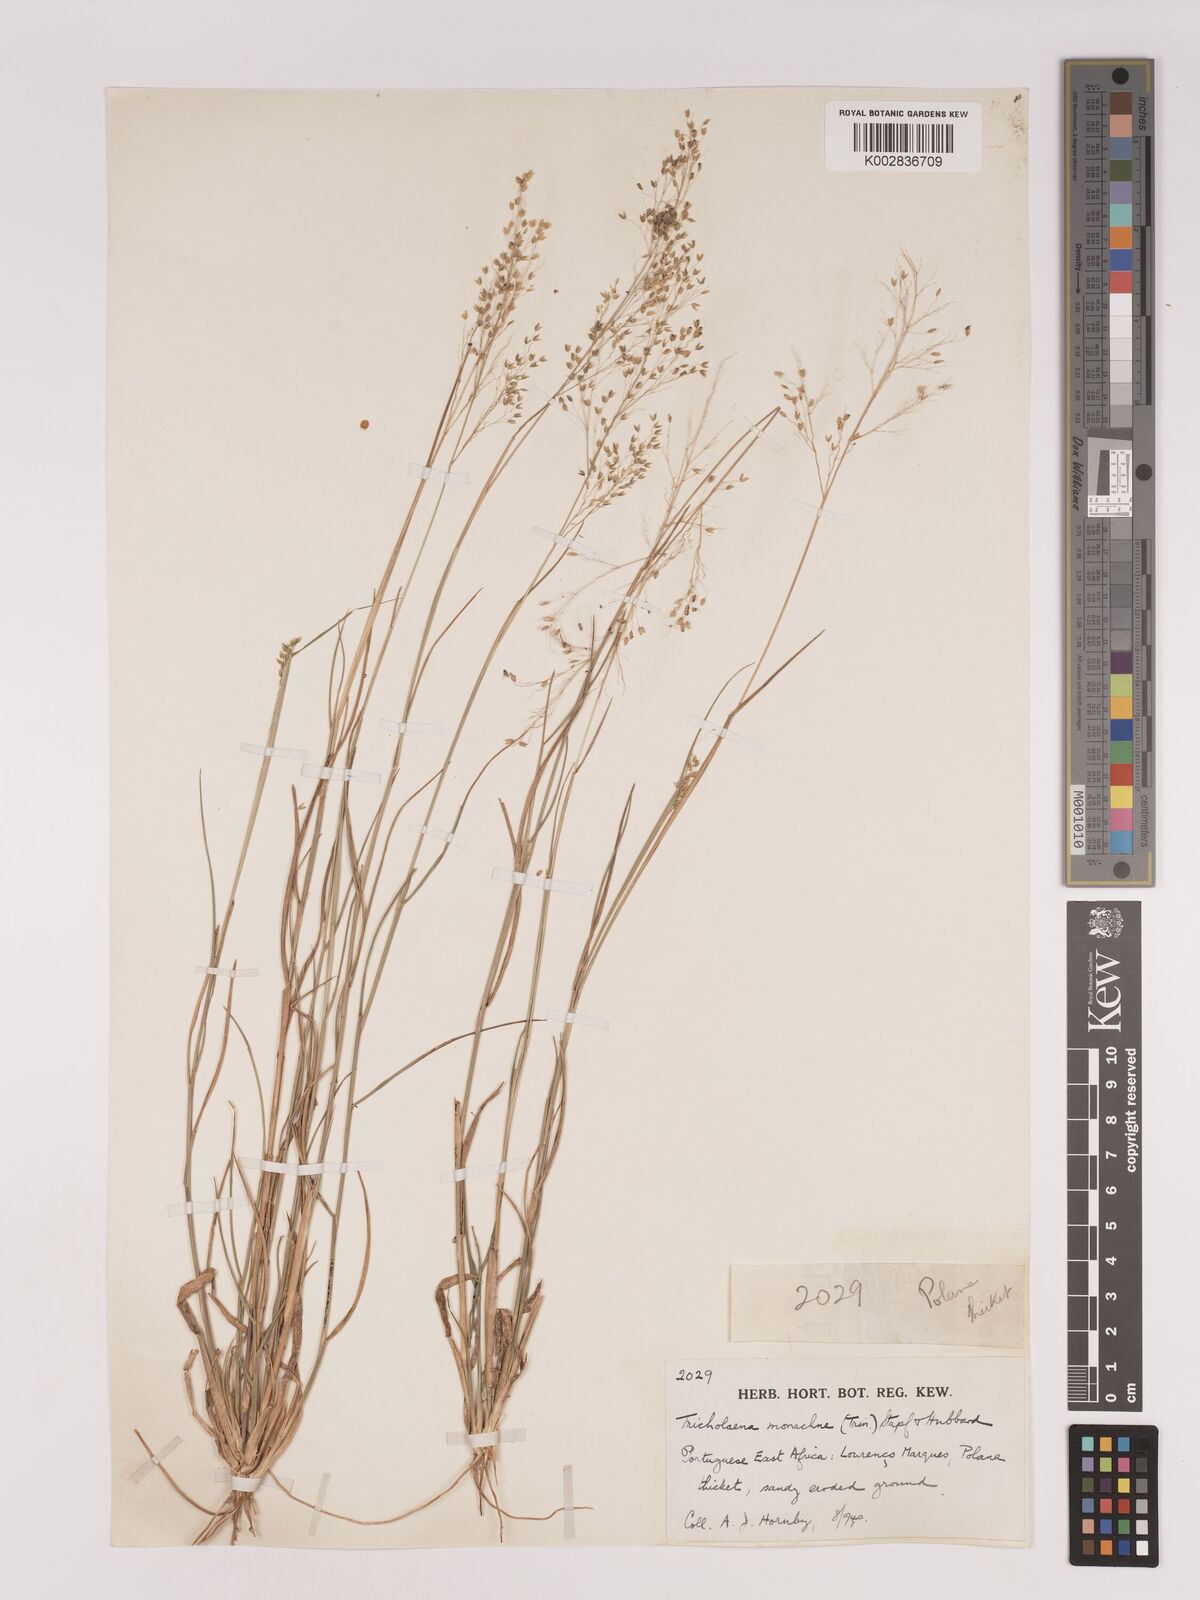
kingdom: Plantae
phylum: Tracheophyta
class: Liliopsida
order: Poales
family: Poaceae
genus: Tricholaena
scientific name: Tricholaena monachne
